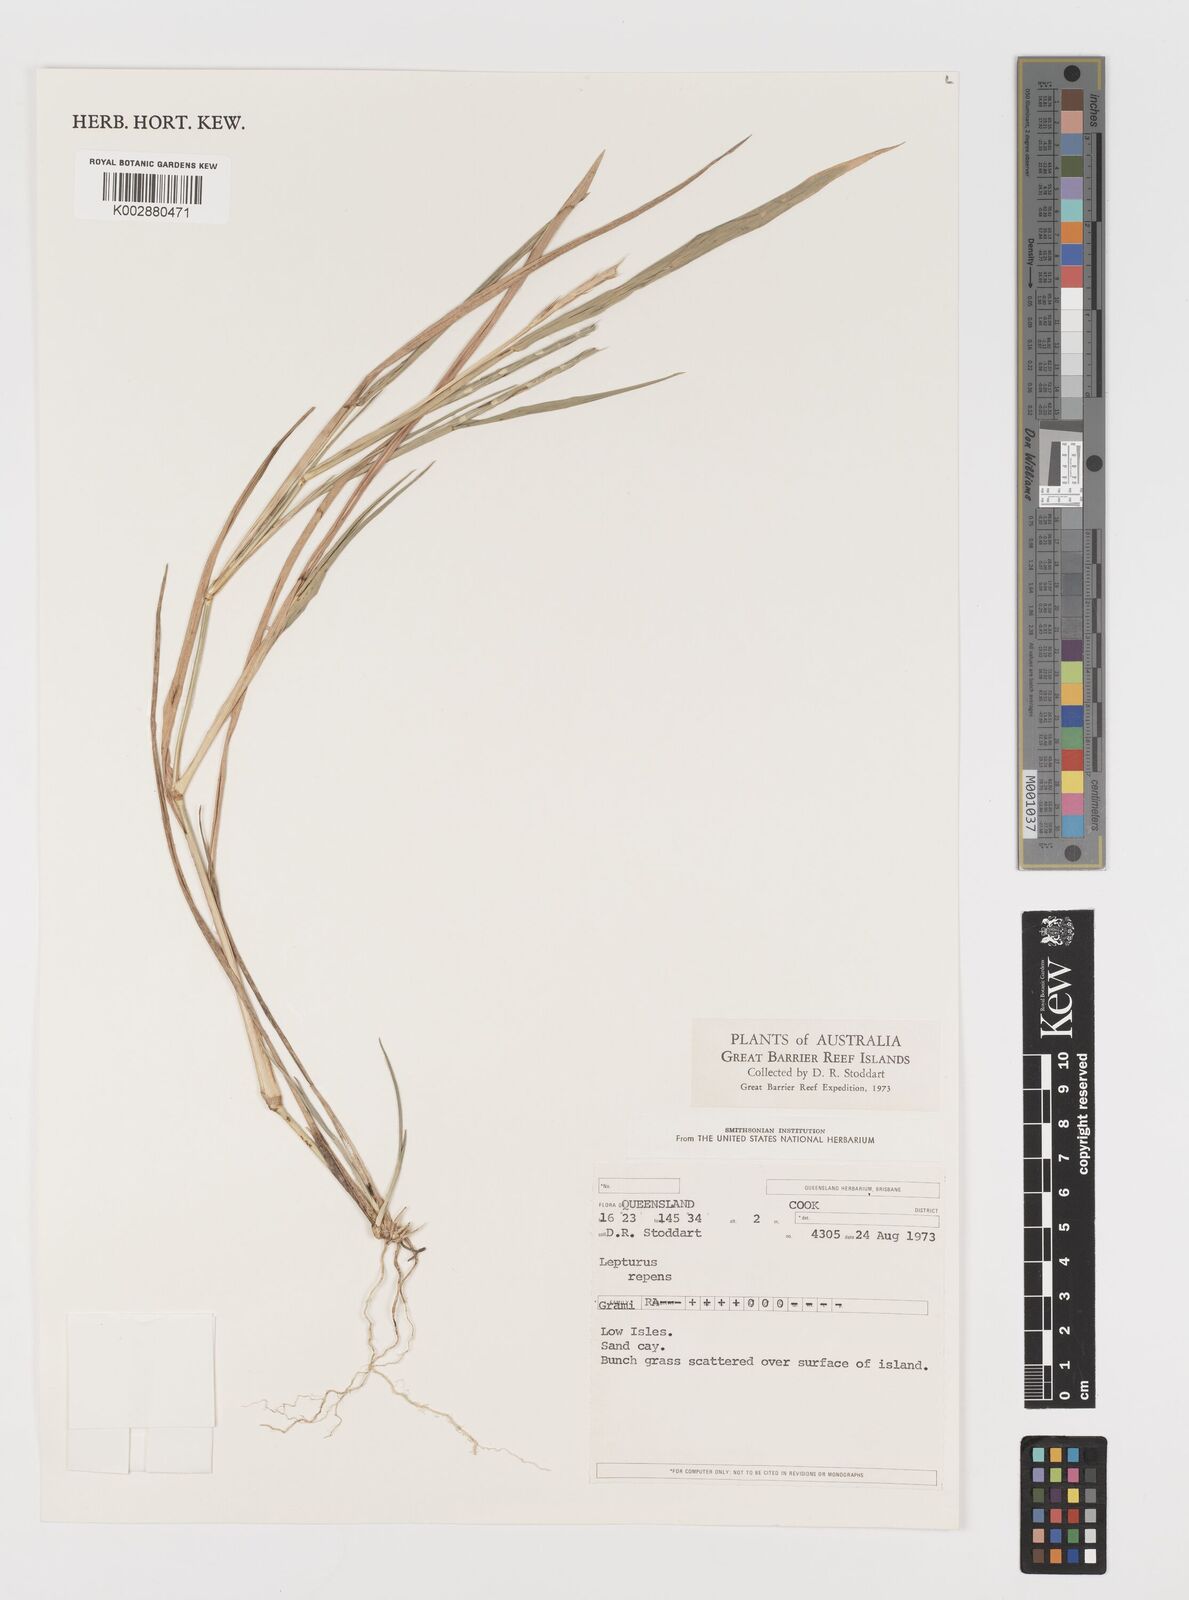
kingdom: Plantae
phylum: Tracheophyta
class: Liliopsida
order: Poales
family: Poaceae
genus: Lepturus
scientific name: Lepturus repens
